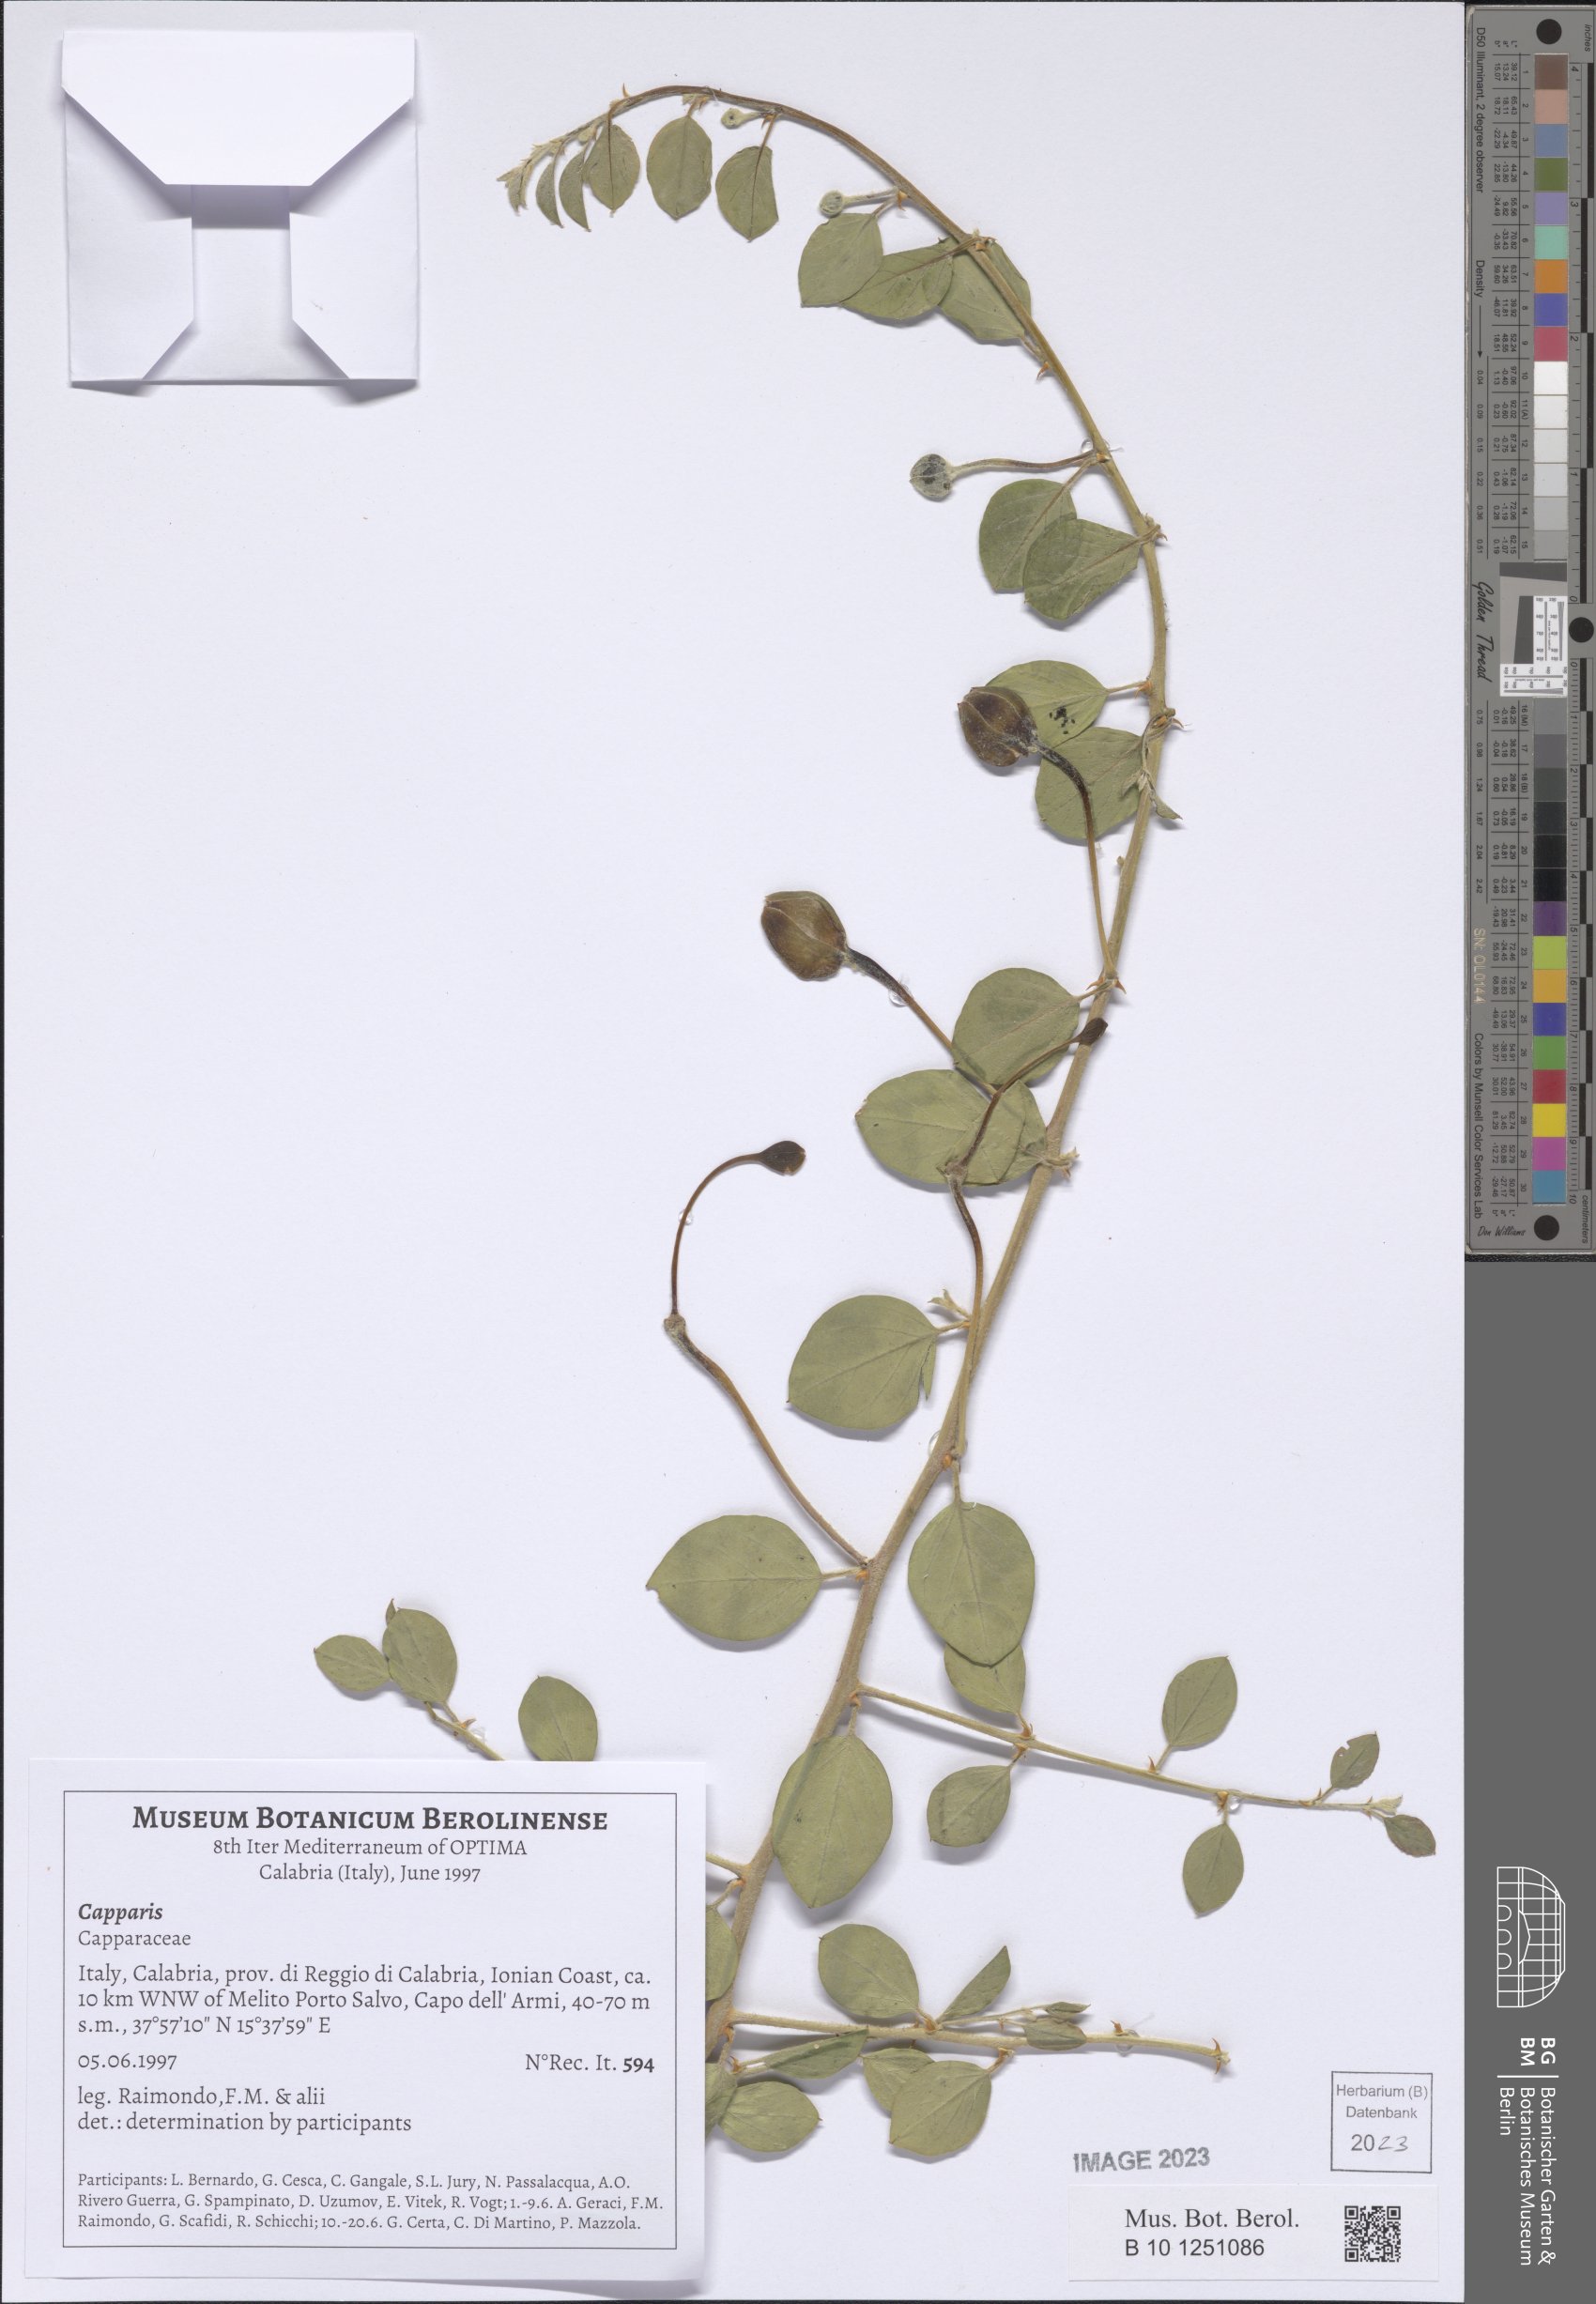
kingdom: Plantae
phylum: Tracheophyta
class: Magnoliopsida
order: Brassicales
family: Capparaceae
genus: Capparis
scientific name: Capparis
